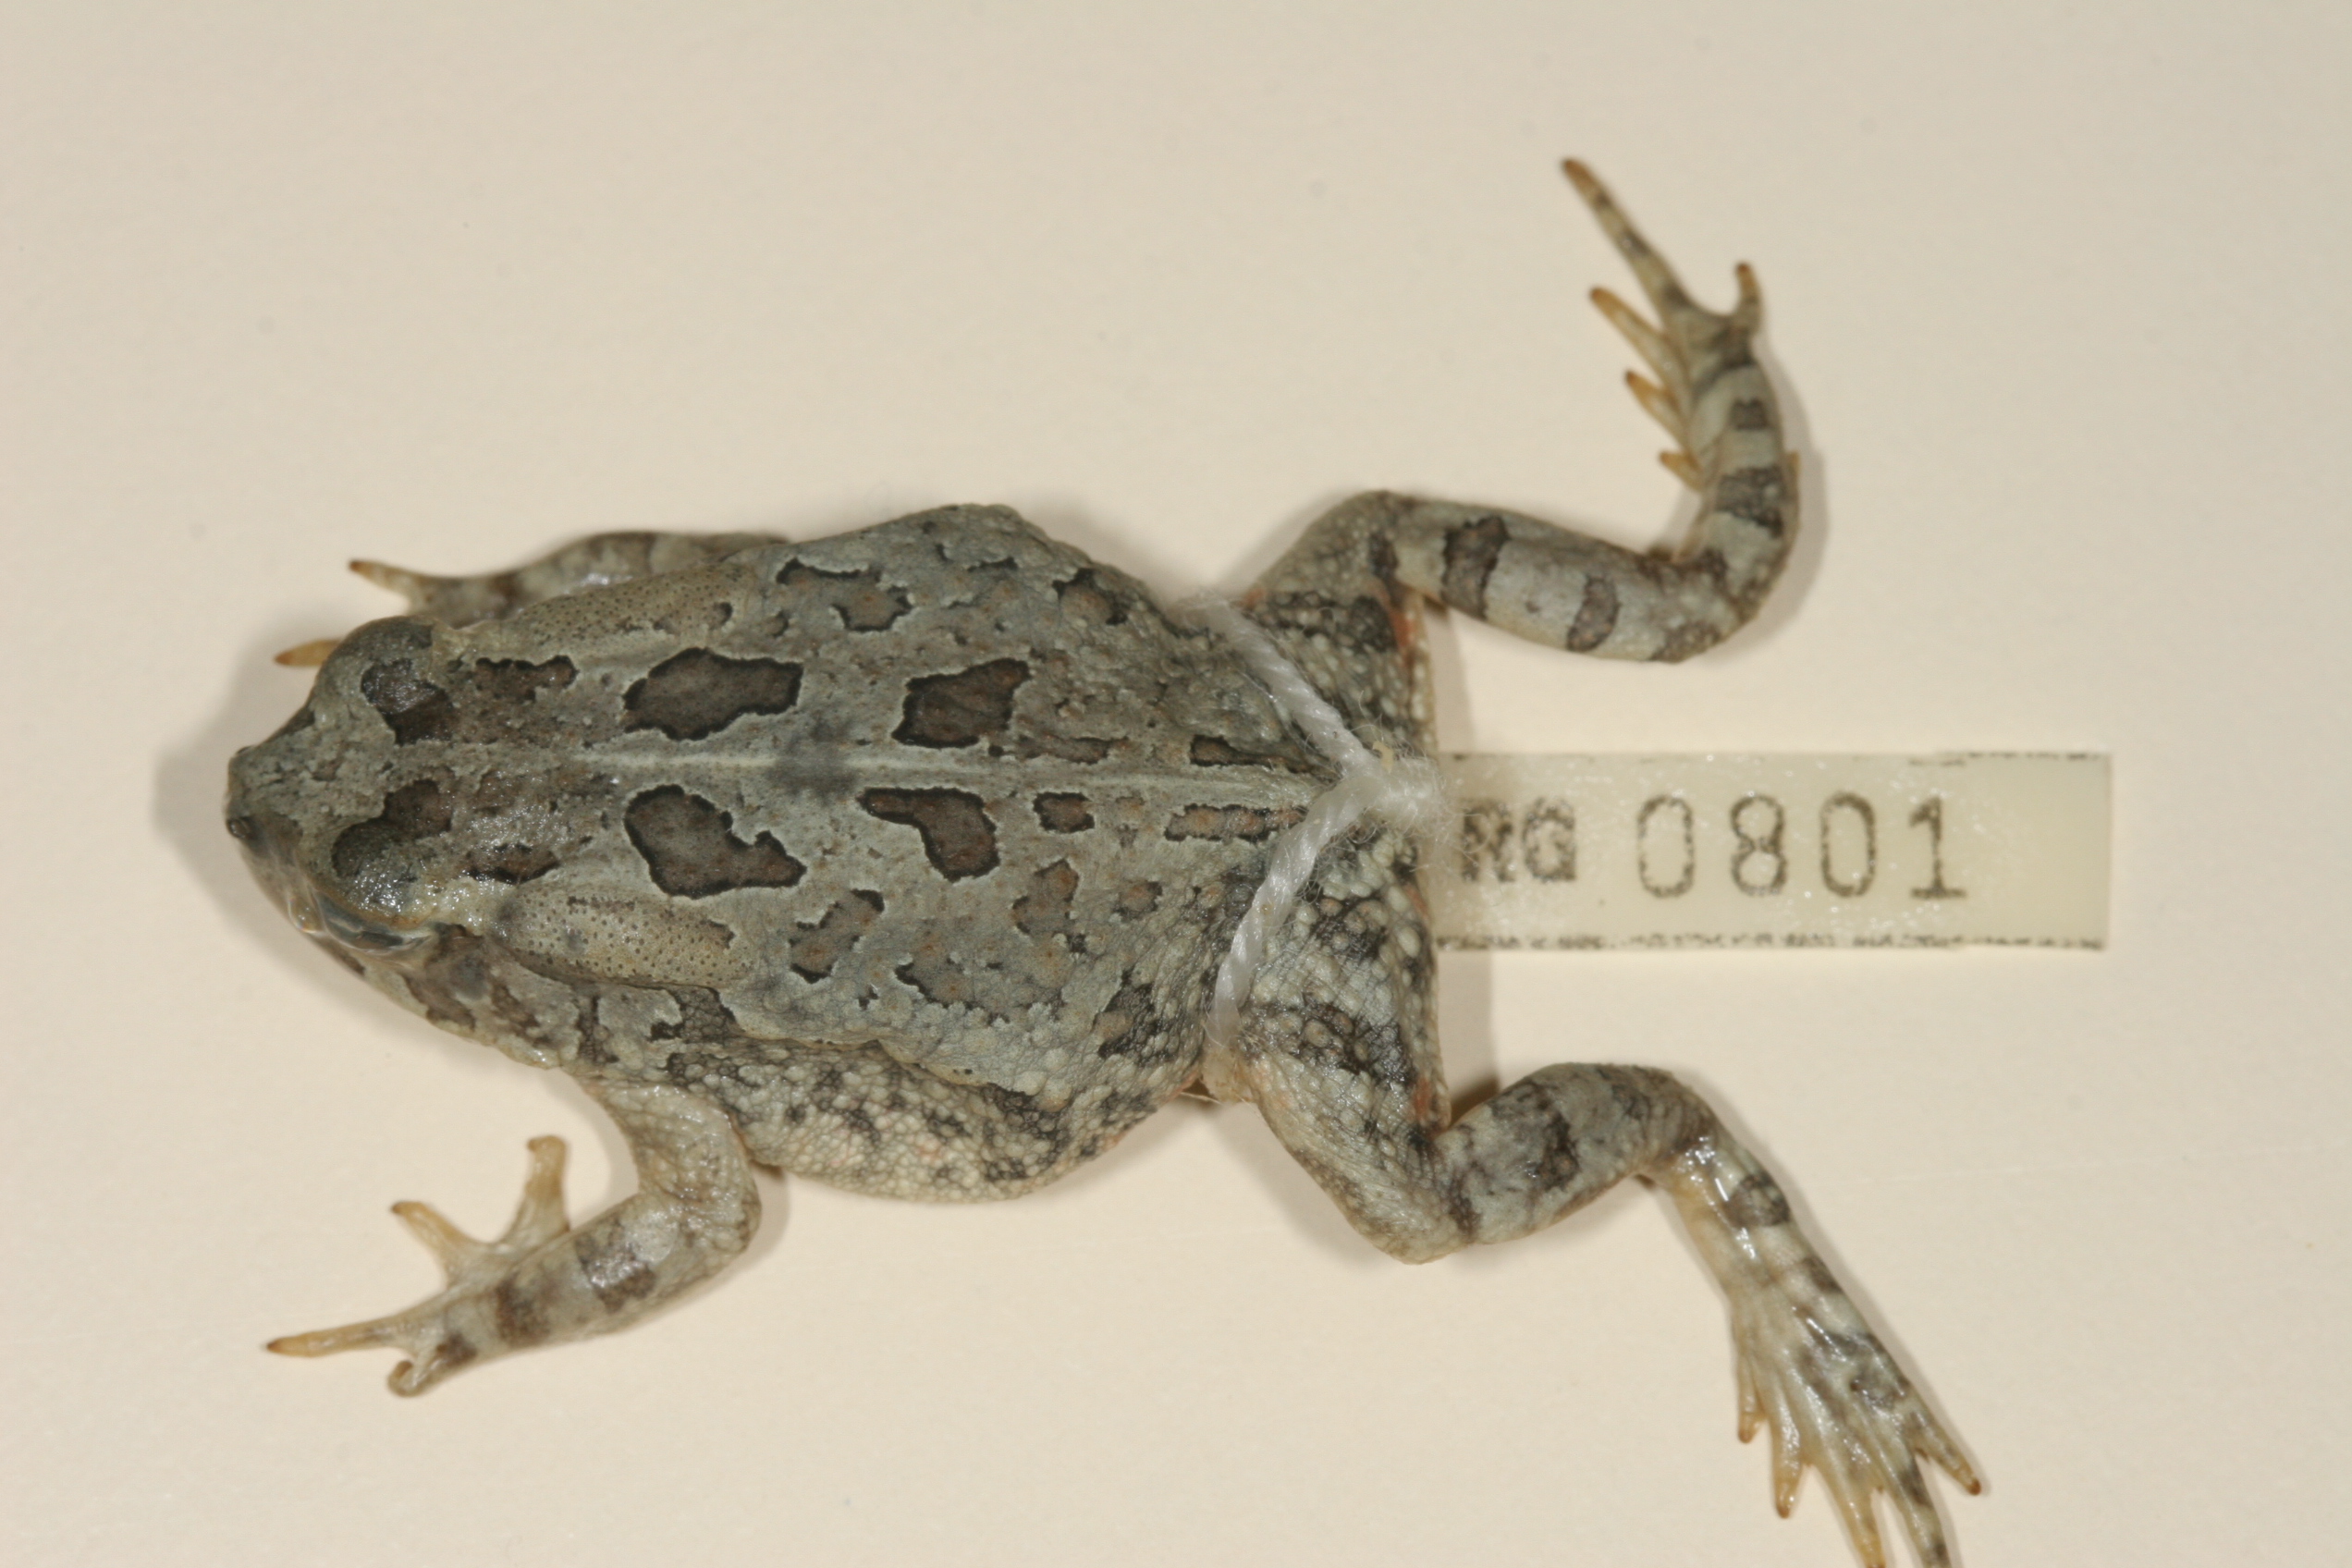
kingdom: Animalia
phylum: Chordata
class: Amphibia
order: Anura
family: Bufonidae
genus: Sclerophrys
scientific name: Sclerophrys poweri
